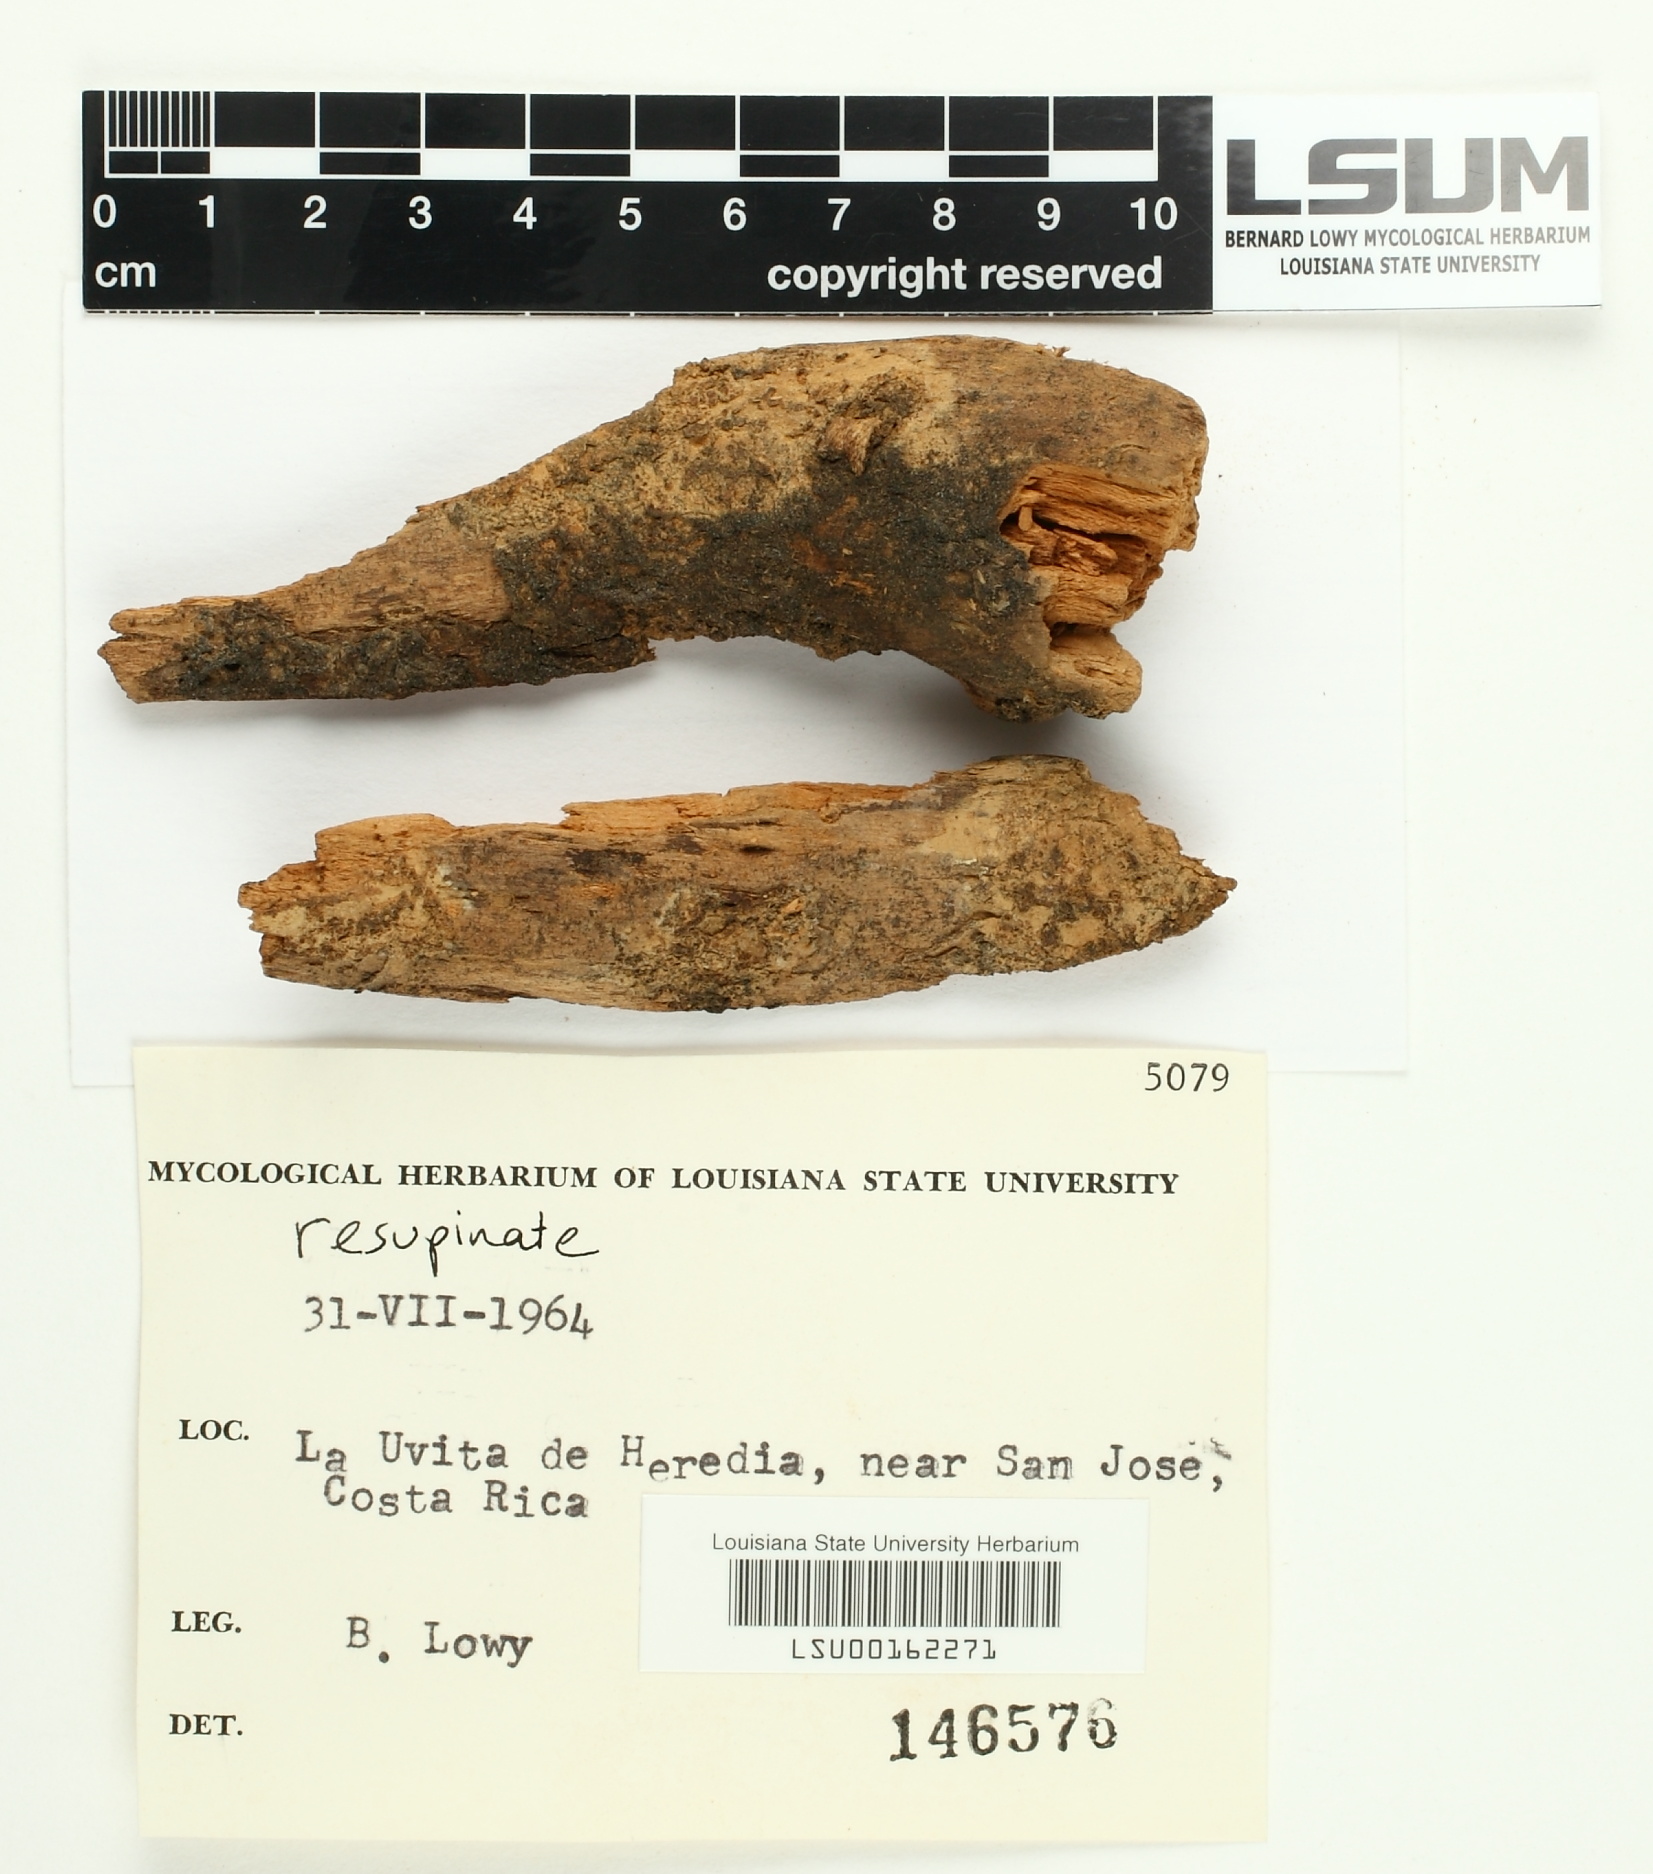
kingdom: Fungi
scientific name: Fungi
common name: Fungi
